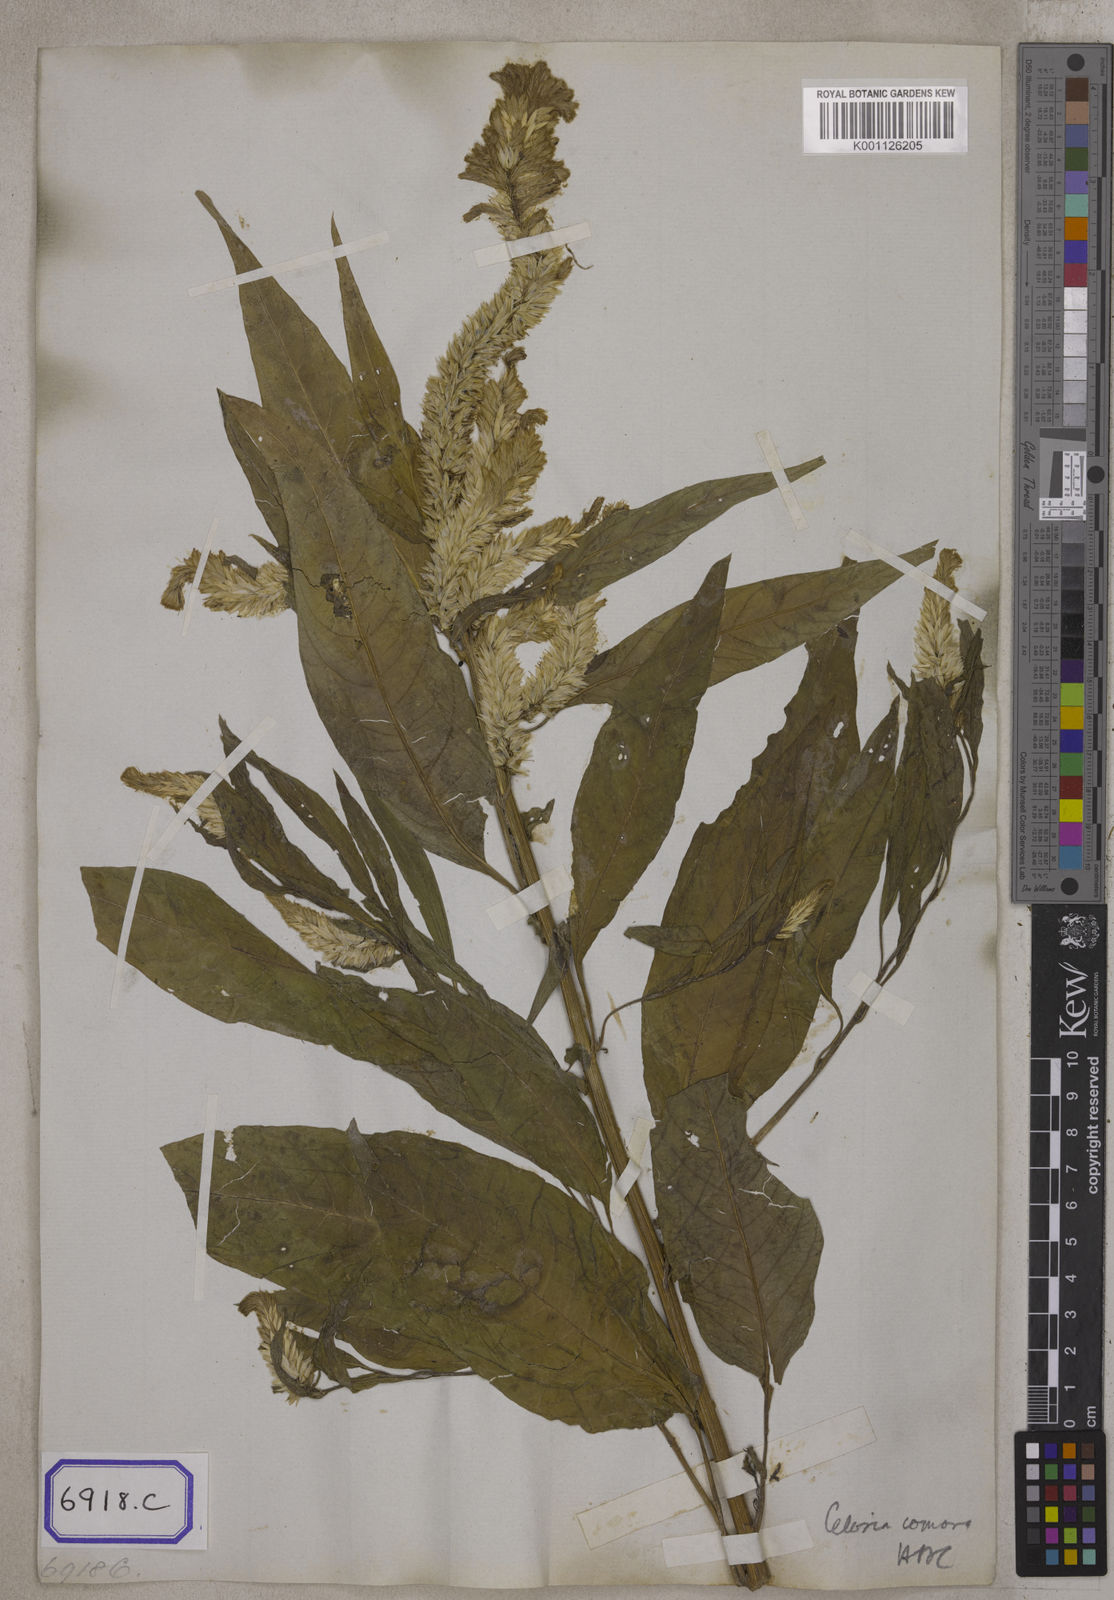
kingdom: Plantae
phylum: Tracheophyta
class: Magnoliopsida
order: Caryophyllales
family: Amaranthaceae
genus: Celosia
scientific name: Celosia argentea
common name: Feather cockscomb
